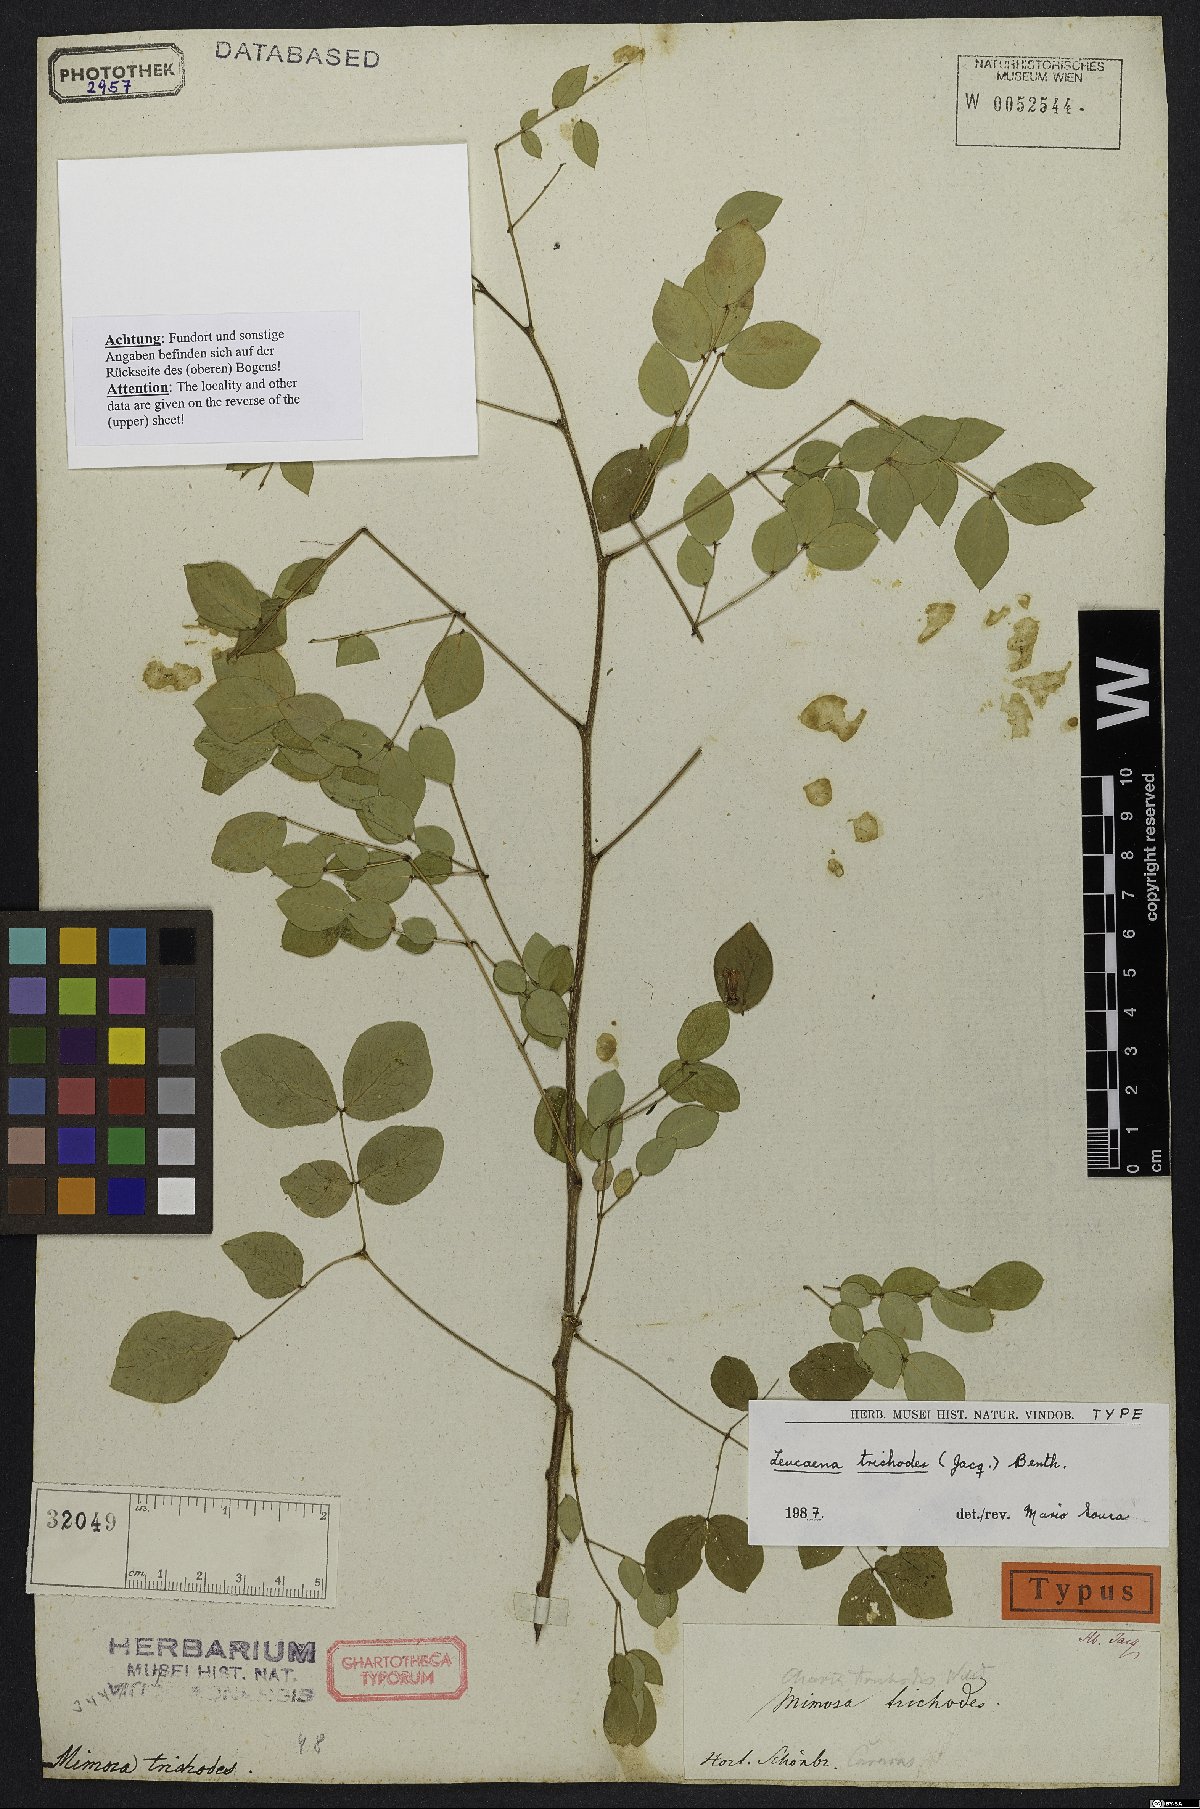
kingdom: Plantae
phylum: Tracheophyta
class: Magnoliopsida
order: Fabales
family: Fabaceae
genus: Leucaena
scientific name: Leucaena trichodes
